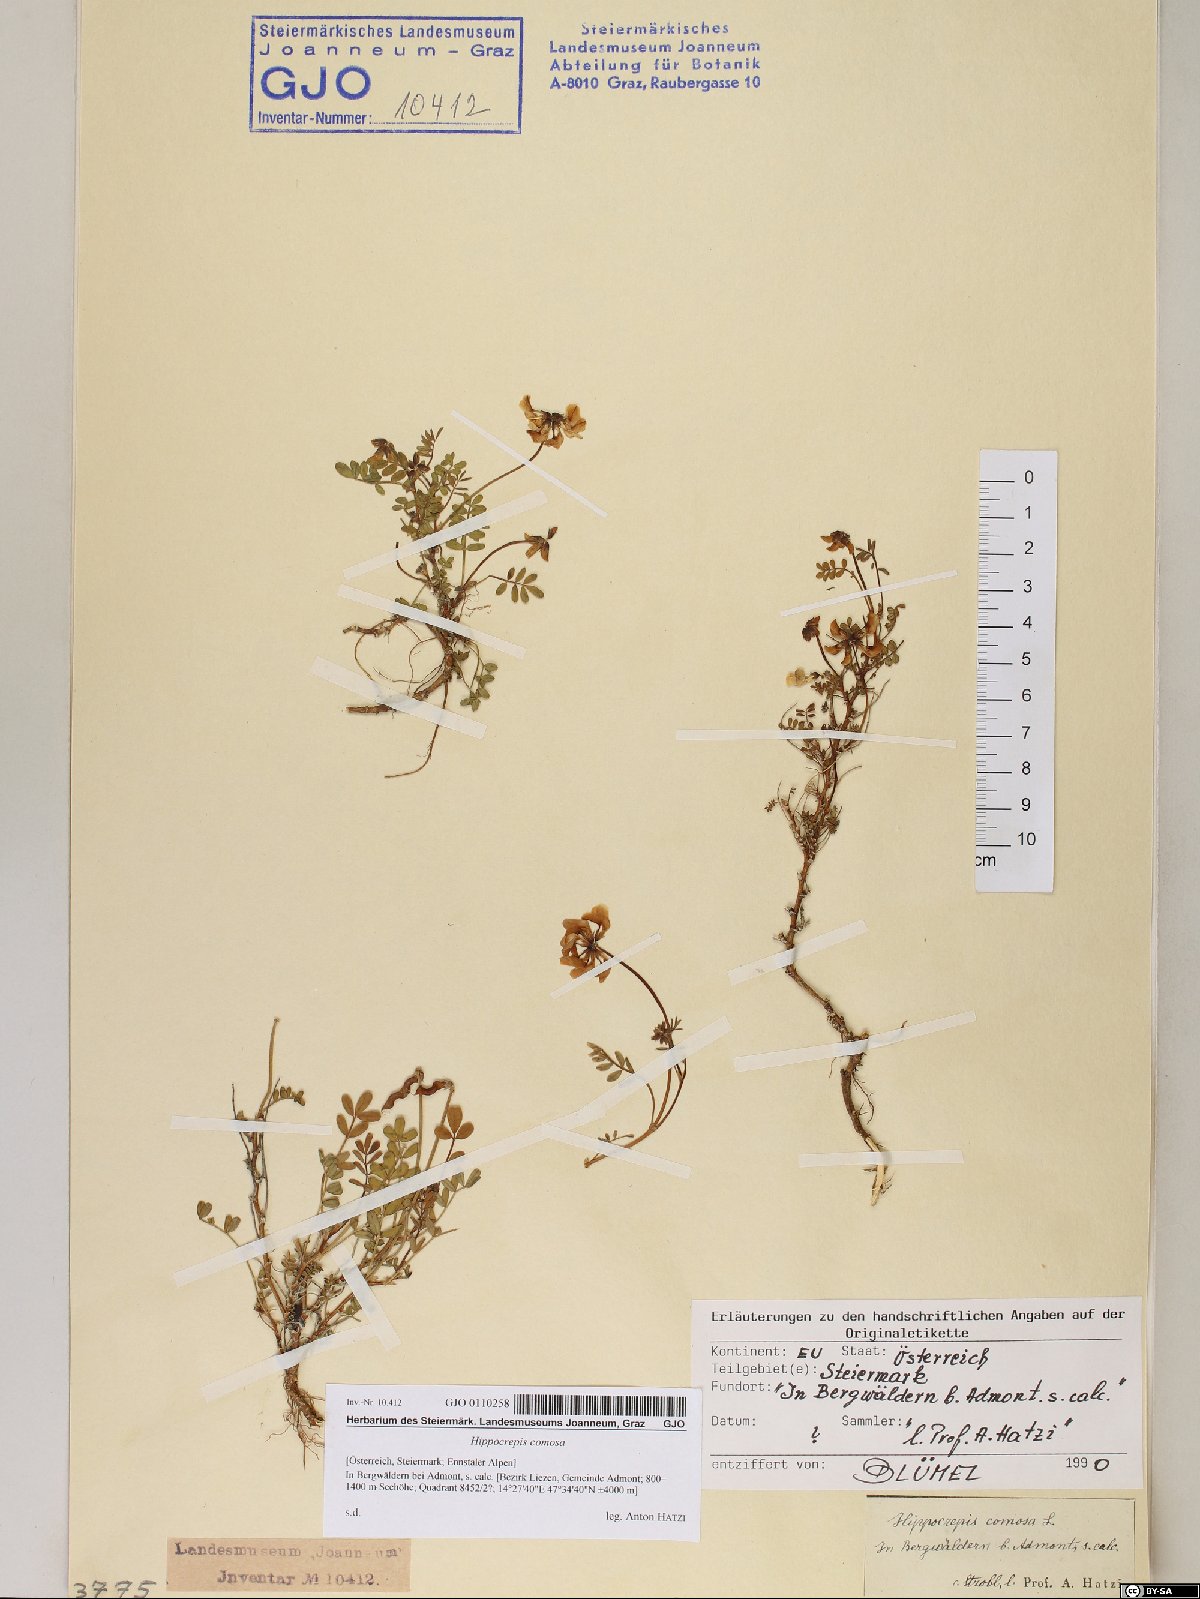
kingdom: Plantae
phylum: Tracheophyta
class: Magnoliopsida
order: Fabales
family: Fabaceae
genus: Hippocrepis
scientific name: Hippocrepis comosa
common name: Horseshoe vetch
